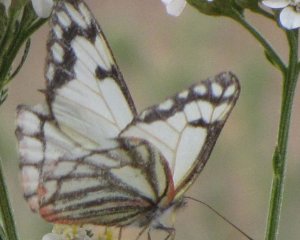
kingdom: Animalia
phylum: Arthropoda
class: Insecta
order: Lepidoptera
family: Pieridae
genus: Neophasia
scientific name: Neophasia menapia
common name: Pine White
